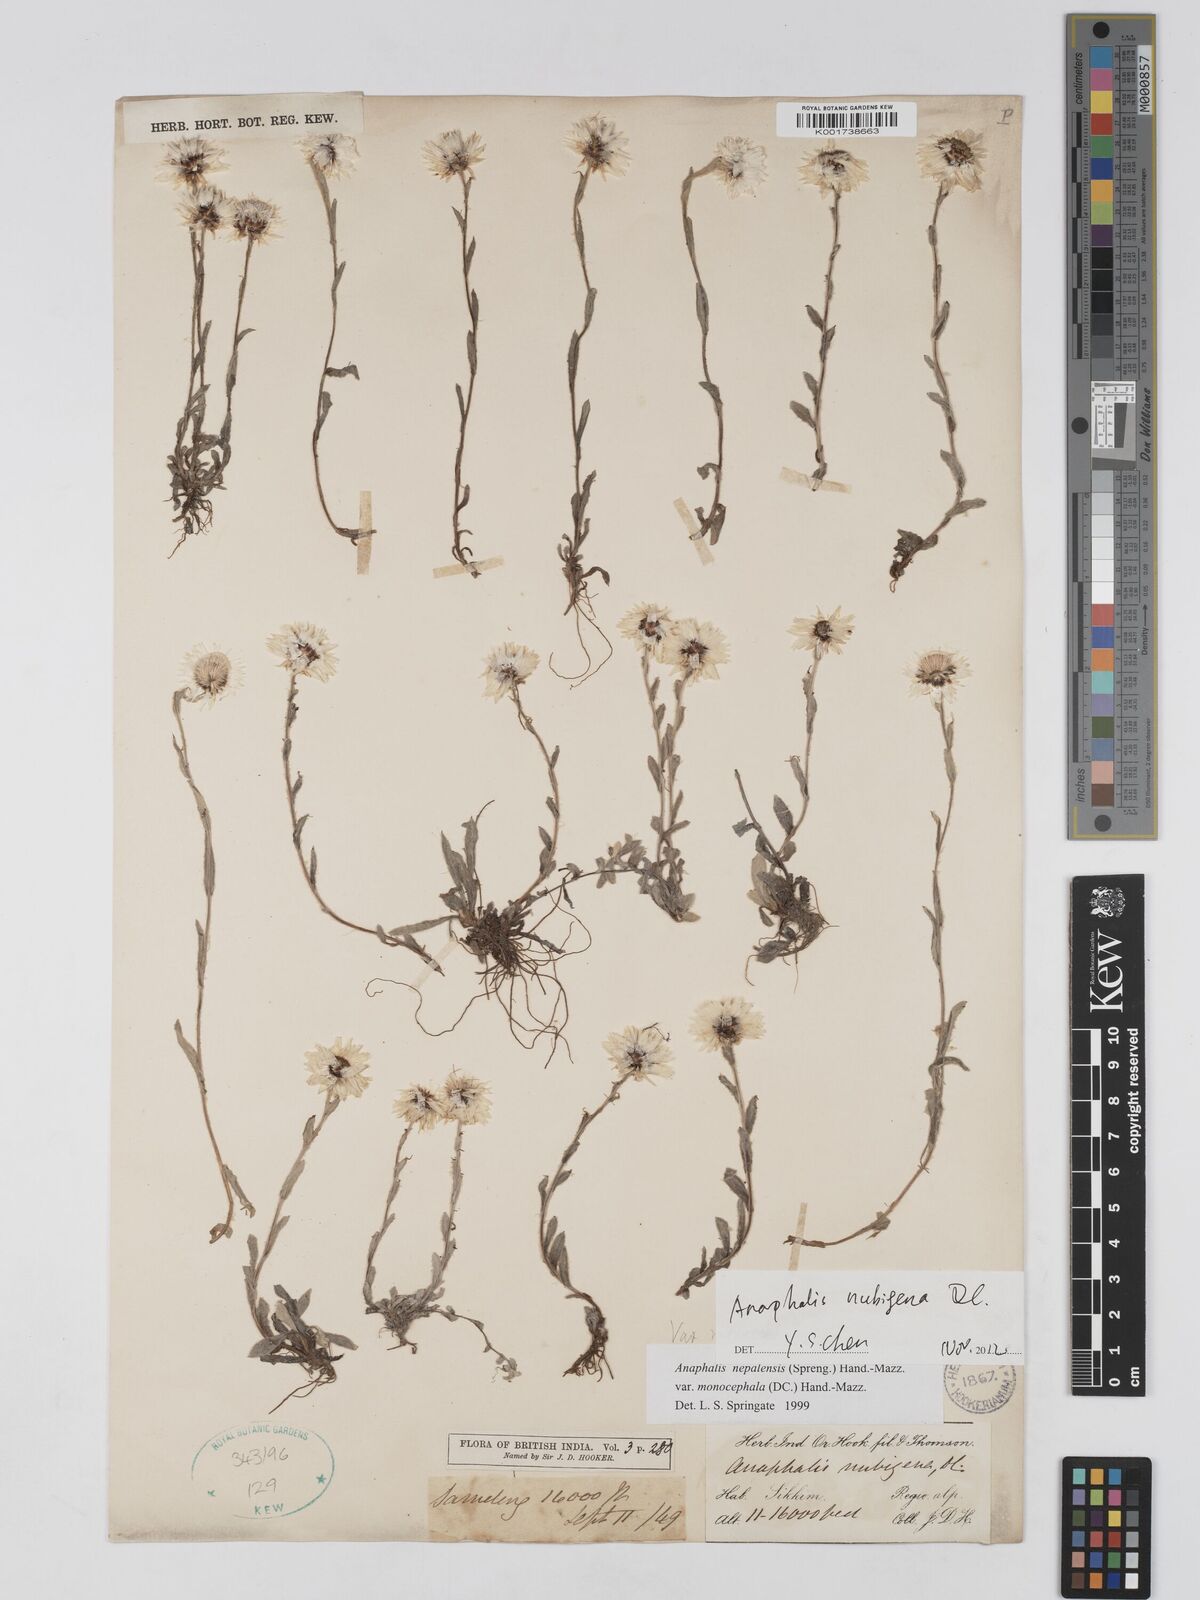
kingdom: Plantae
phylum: Tracheophyta
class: Magnoliopsida
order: Asterales
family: Asteraceae
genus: Anaphalis
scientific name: Anaphalis nepalensis
